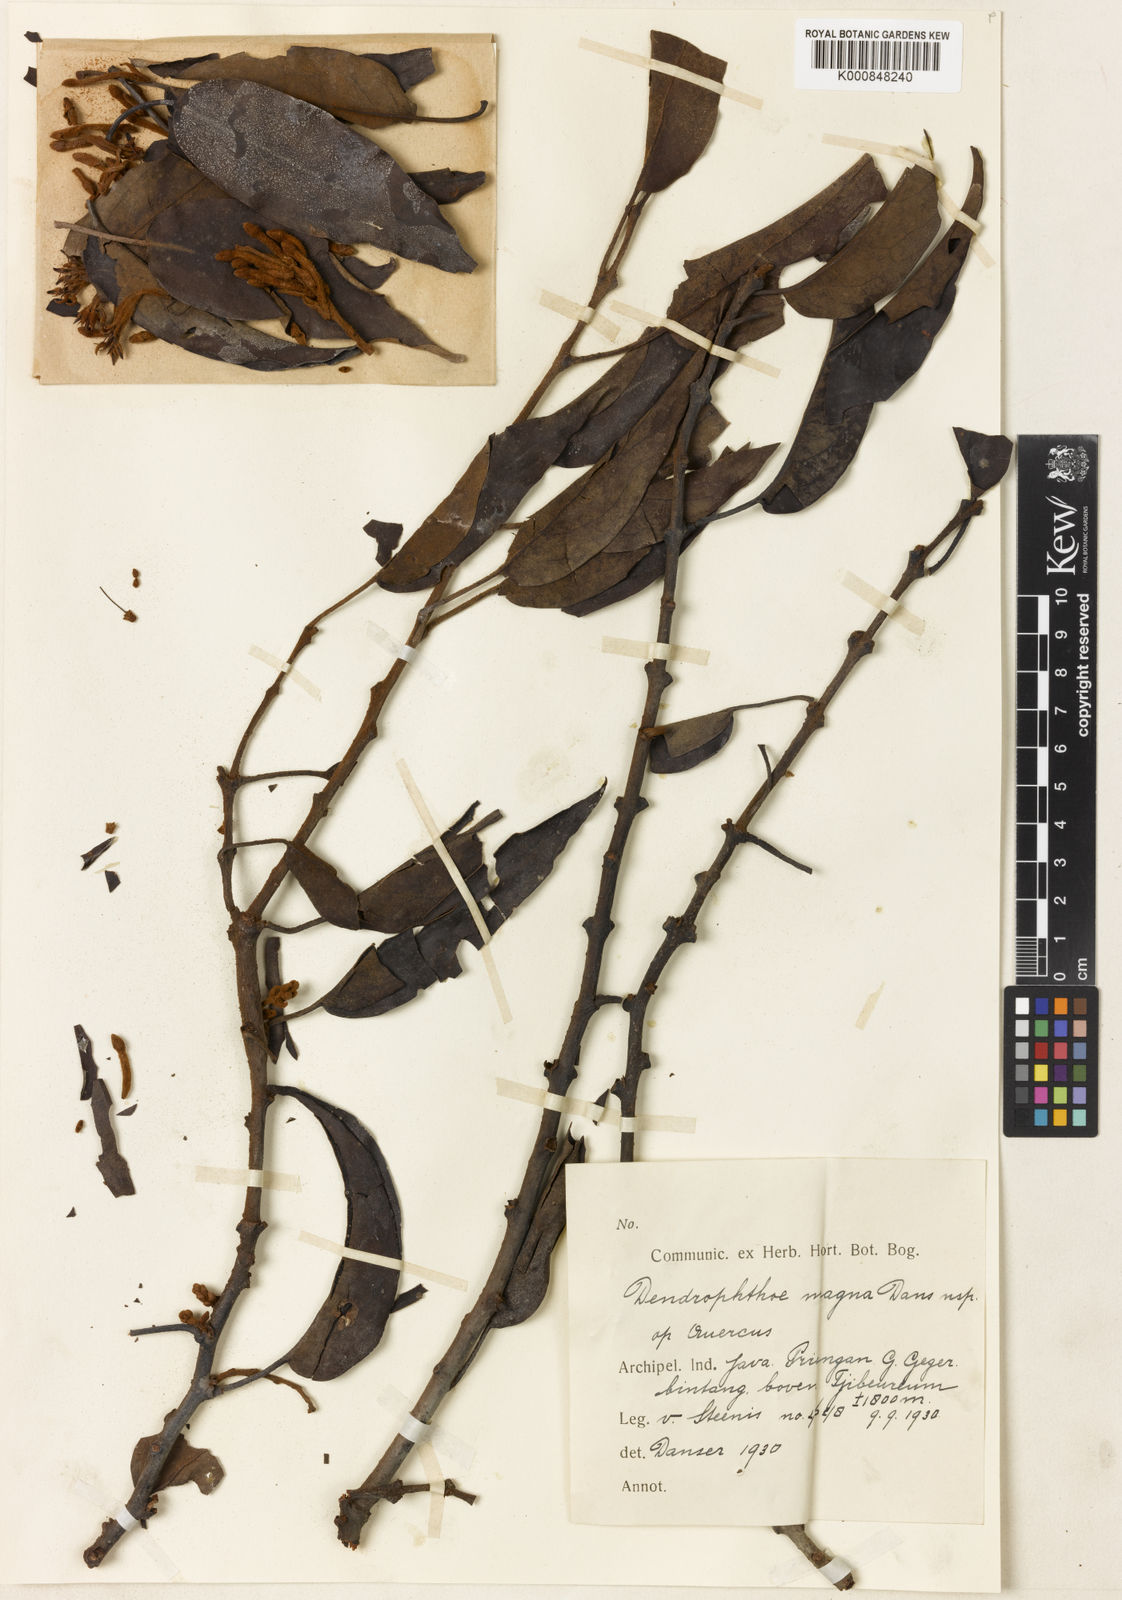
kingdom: Plantae
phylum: Tracheophyta
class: Magnoliopsida
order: Santalales
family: Loranthaceae
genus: Dendrophthoe
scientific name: Dendrophthoe lanosa
